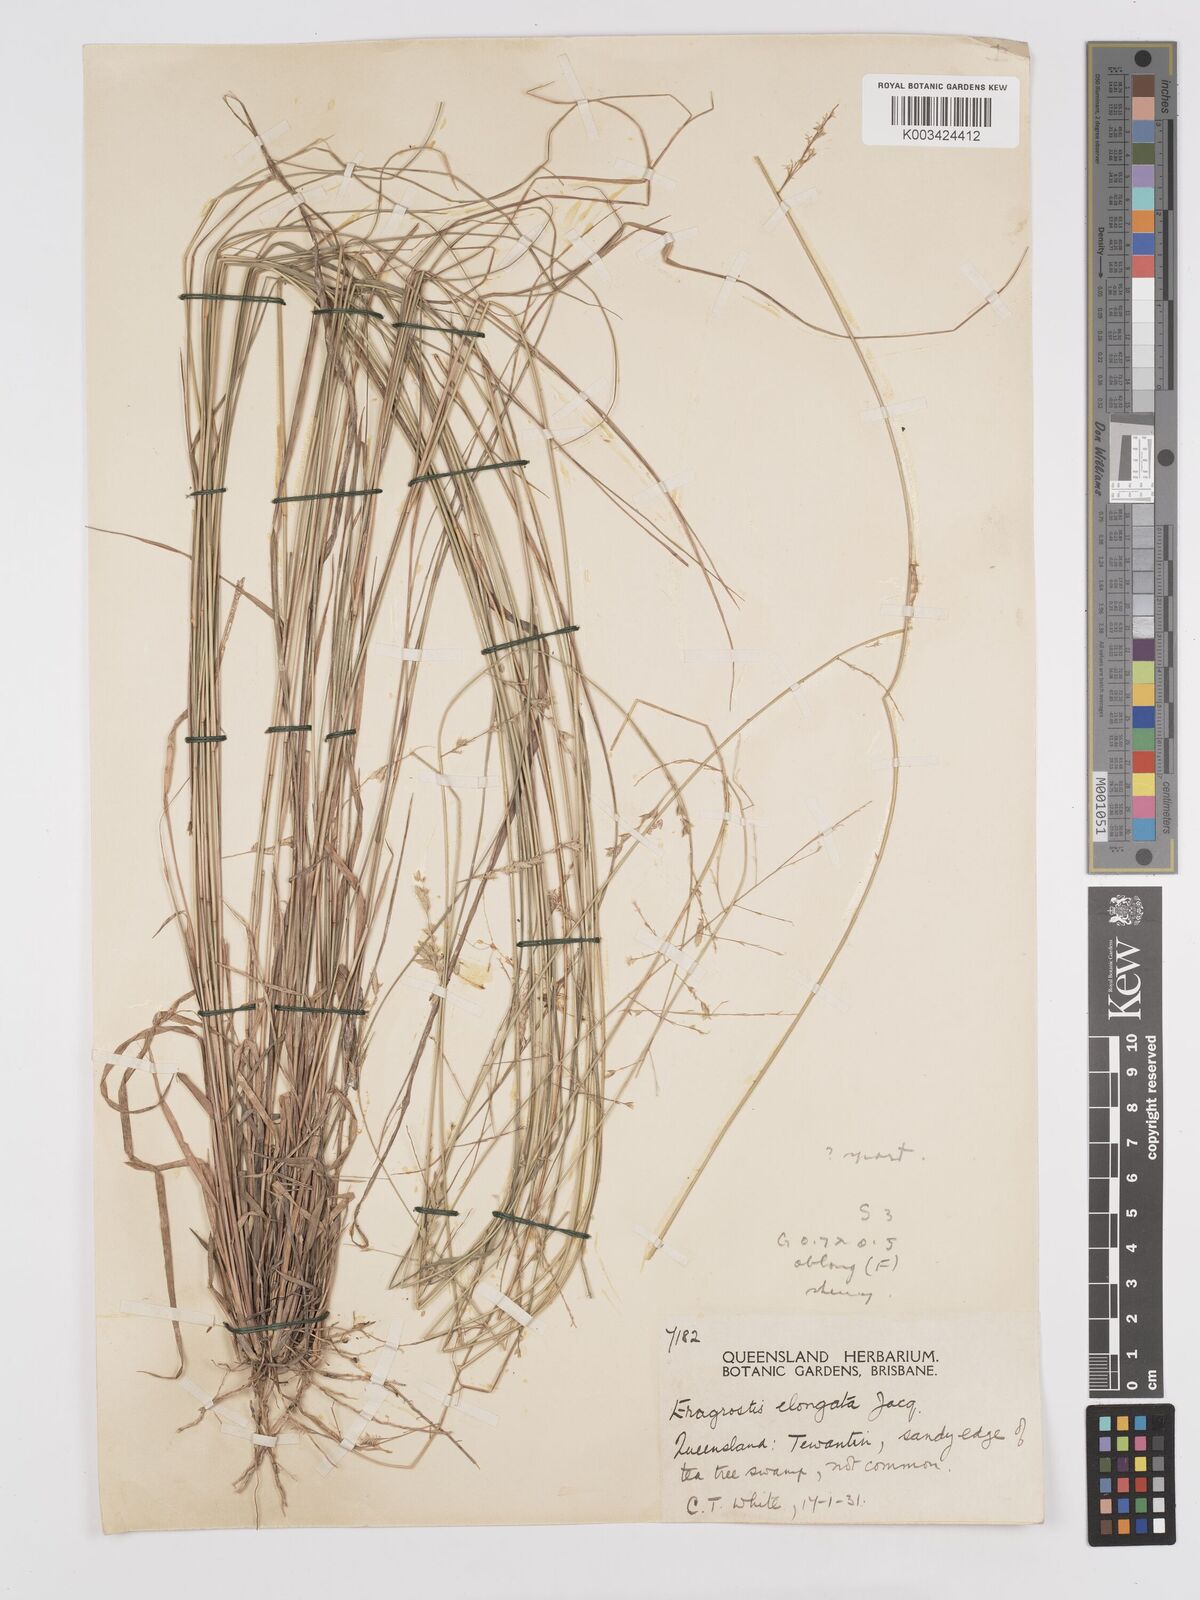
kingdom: Plantae
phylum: Tracheophyta
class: Liliopsida
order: Poales
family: Poaceae
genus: Eragrostis
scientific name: Eragrostis elongata
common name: Long lovegrass
